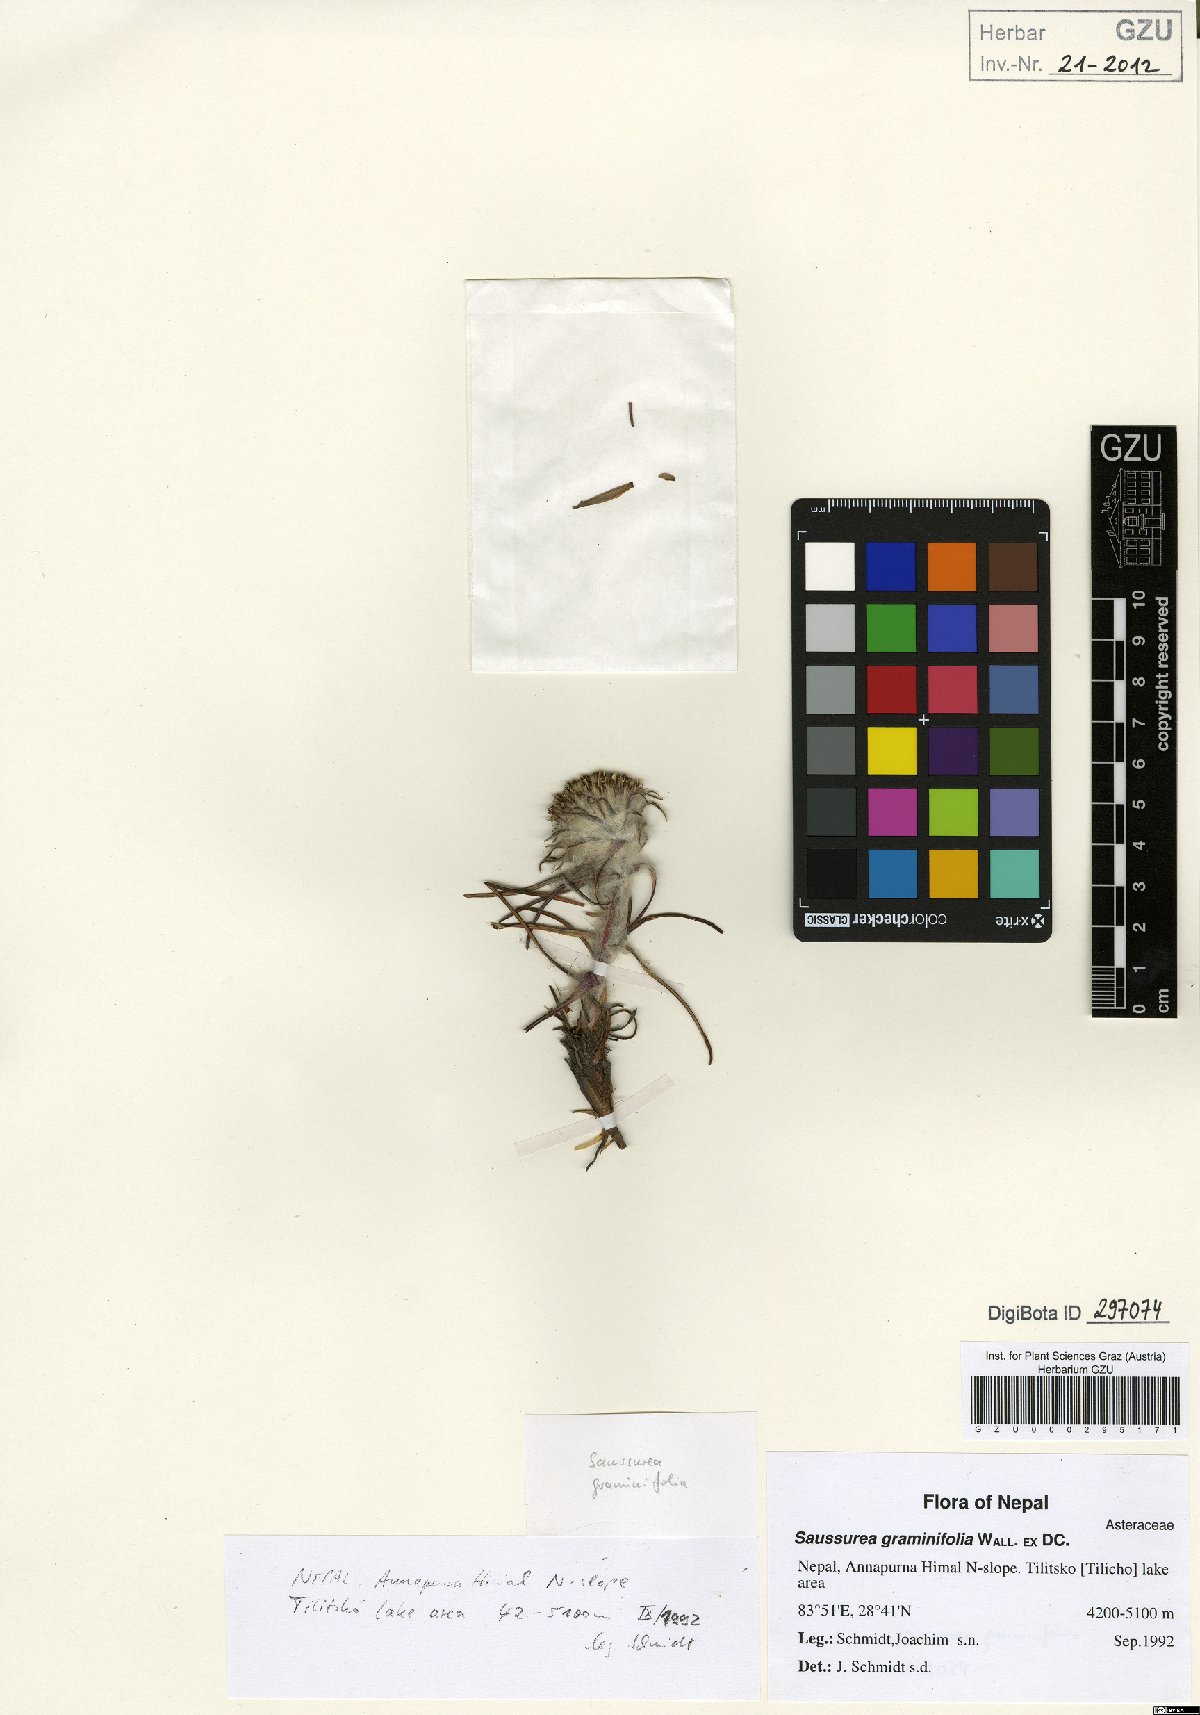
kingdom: Plantae
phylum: Tracheophyta
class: Magnoliopsida
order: Asterales
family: Asteraceae
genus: Saussurea
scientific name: Saussurea graminifolia
